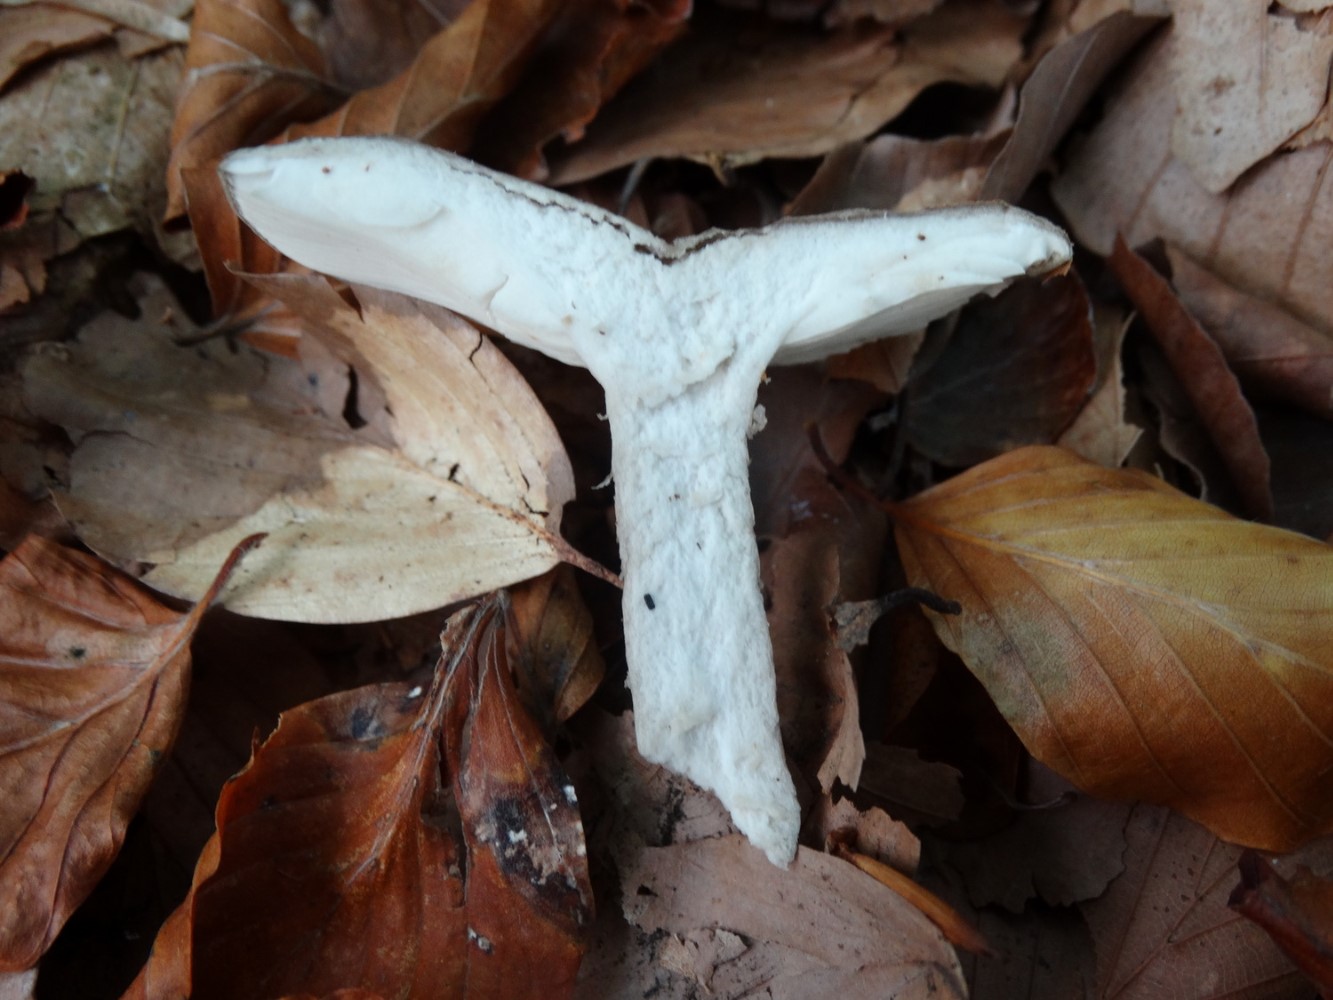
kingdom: Fungi
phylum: Basidiomycota
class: Agaricomycetes
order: Russulales
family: Russulaceae
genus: Lactarius
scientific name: Lactarius blennius
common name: dråbeplettet mælkehat
